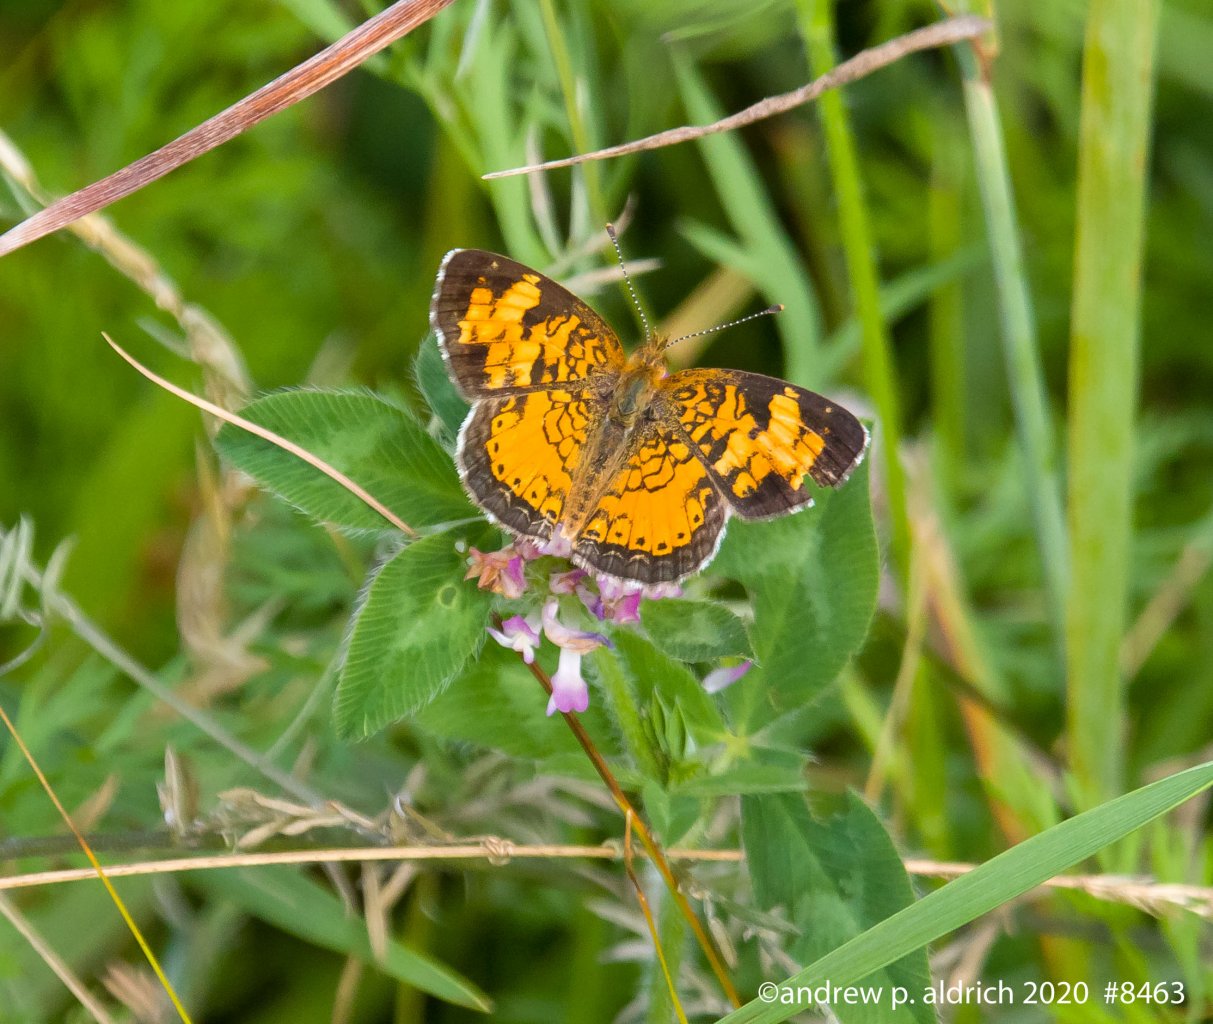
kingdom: Animalia
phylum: Arthropoda
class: Insecta
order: Lepidoptera
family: Nymphalidae
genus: Phyciodes
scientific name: Phyciodes
